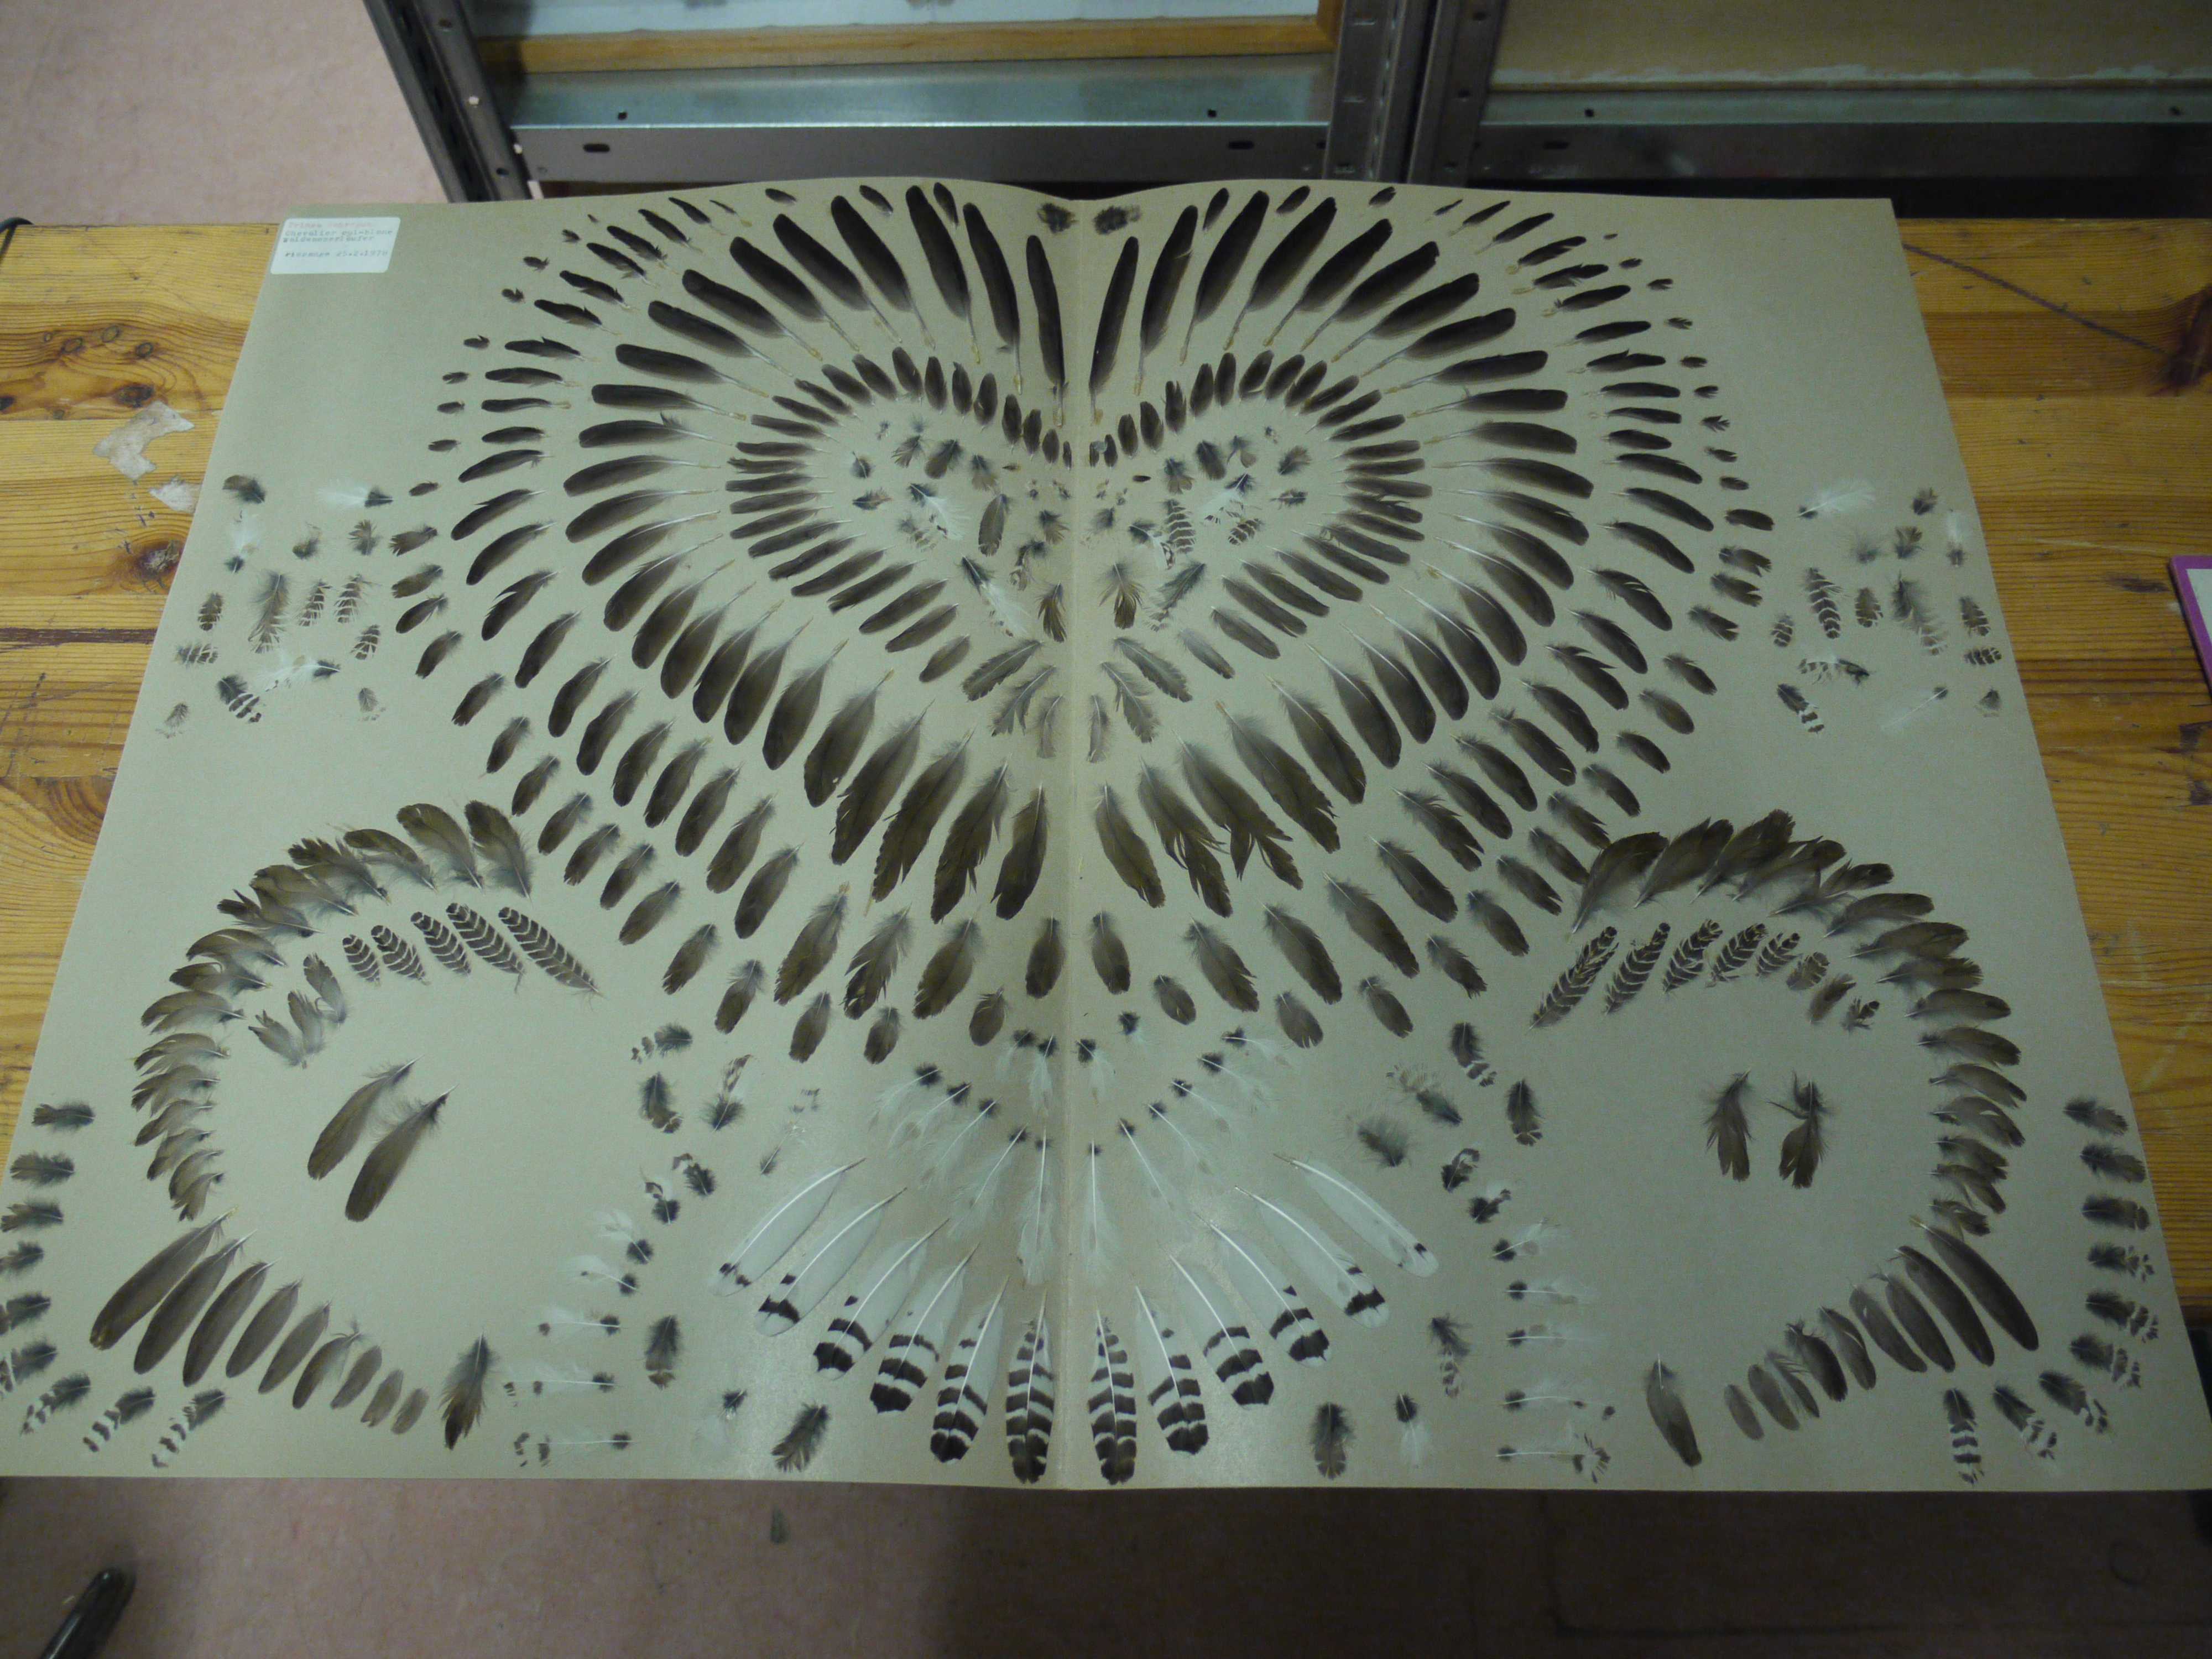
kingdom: Animalia
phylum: Chordata
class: Aves
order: Charadriiformes
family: Scolopacidae
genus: Tringa
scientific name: Tringa ochropus
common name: Green sandpiper
